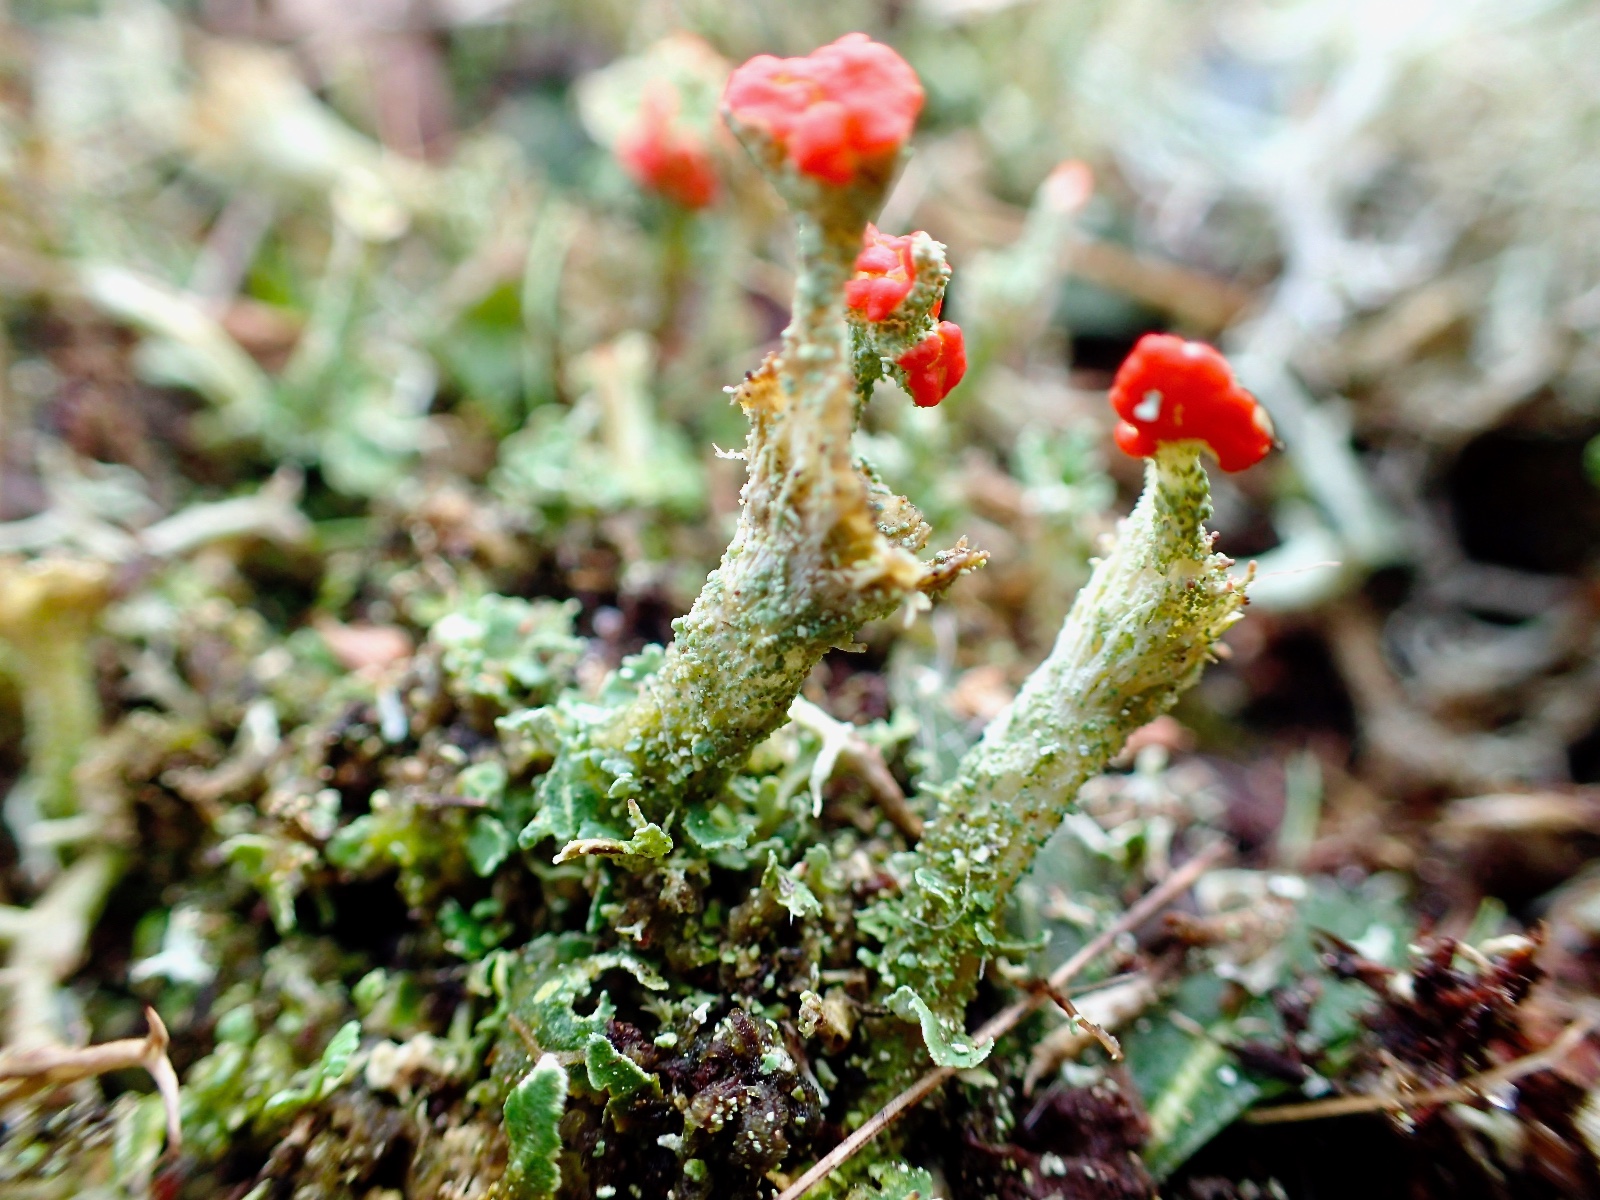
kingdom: Fungi
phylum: Ascomycota
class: Lecanoromycetes
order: Lecanorales
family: Cladoniaceae
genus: Cladonia
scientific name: Cladonia diversa
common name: rød bægerlav
